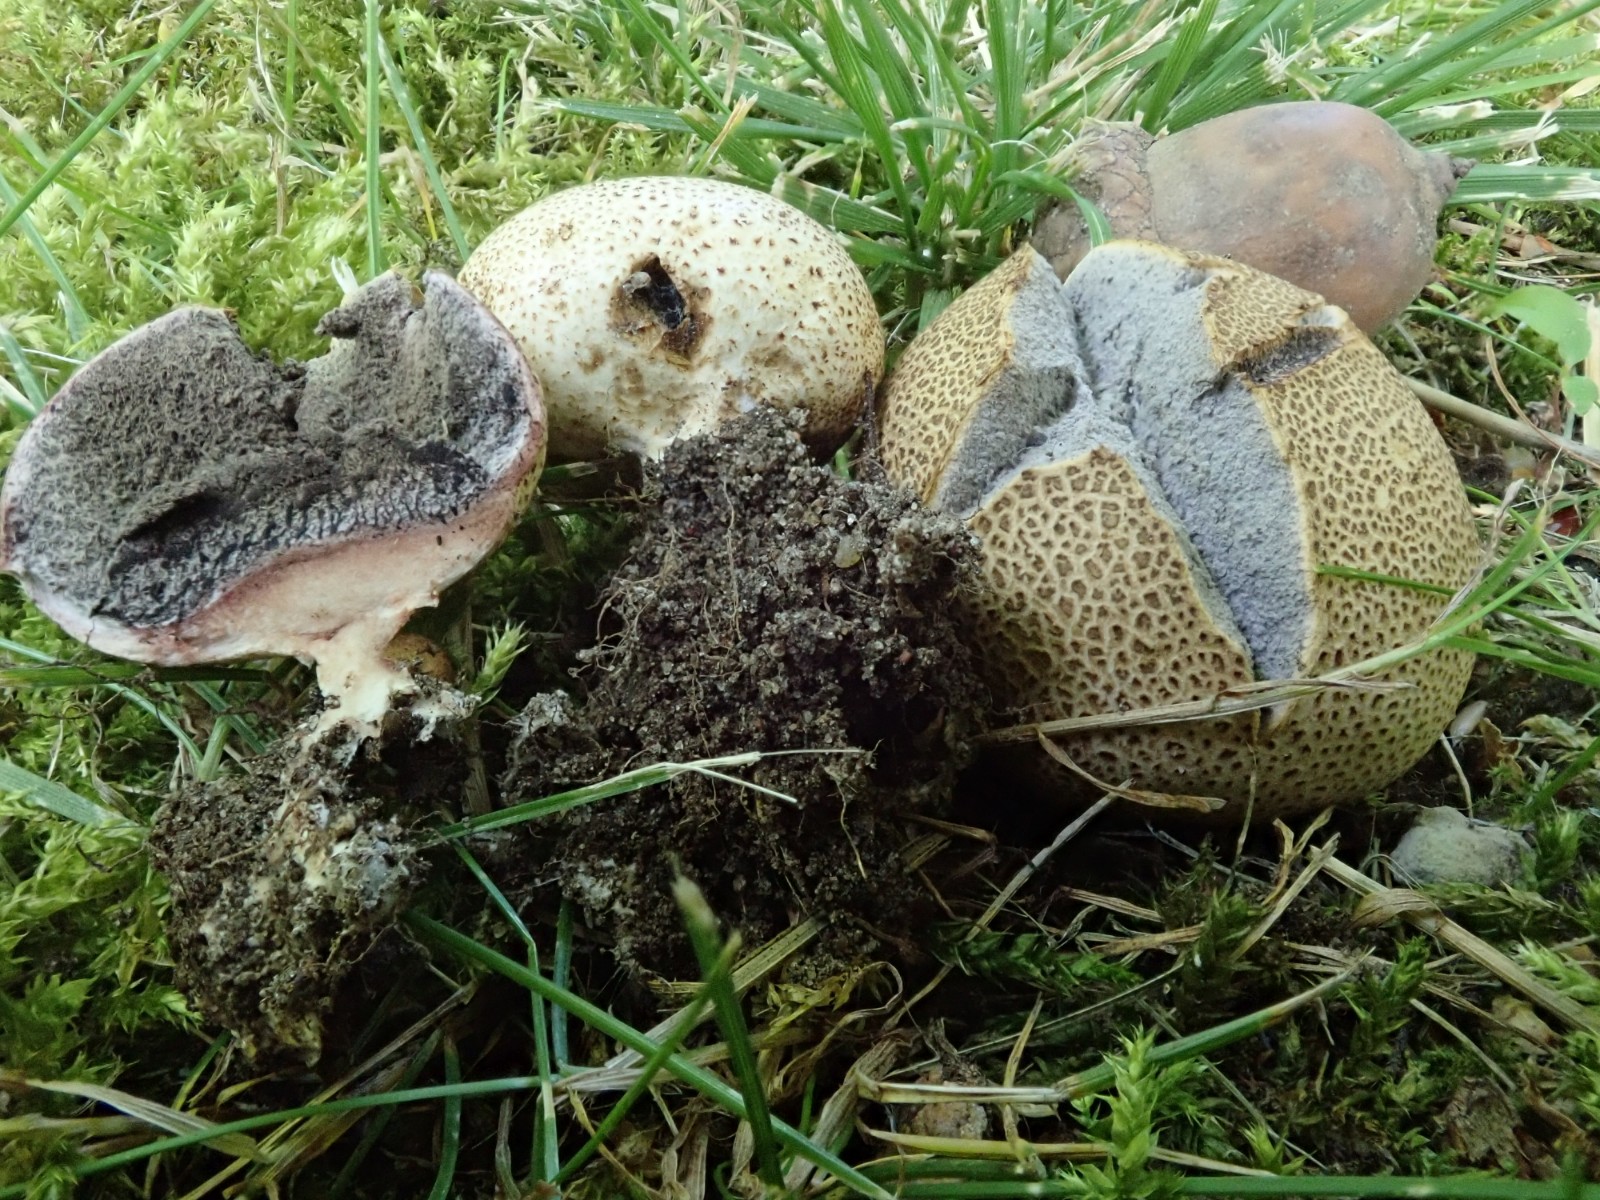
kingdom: Fungi
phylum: Basidiomycota
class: Agaricomycetes
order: Boletales
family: Sclerodermataceae
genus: Scleroderma
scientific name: Scleroderma areolatum
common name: plettet bruskbold
